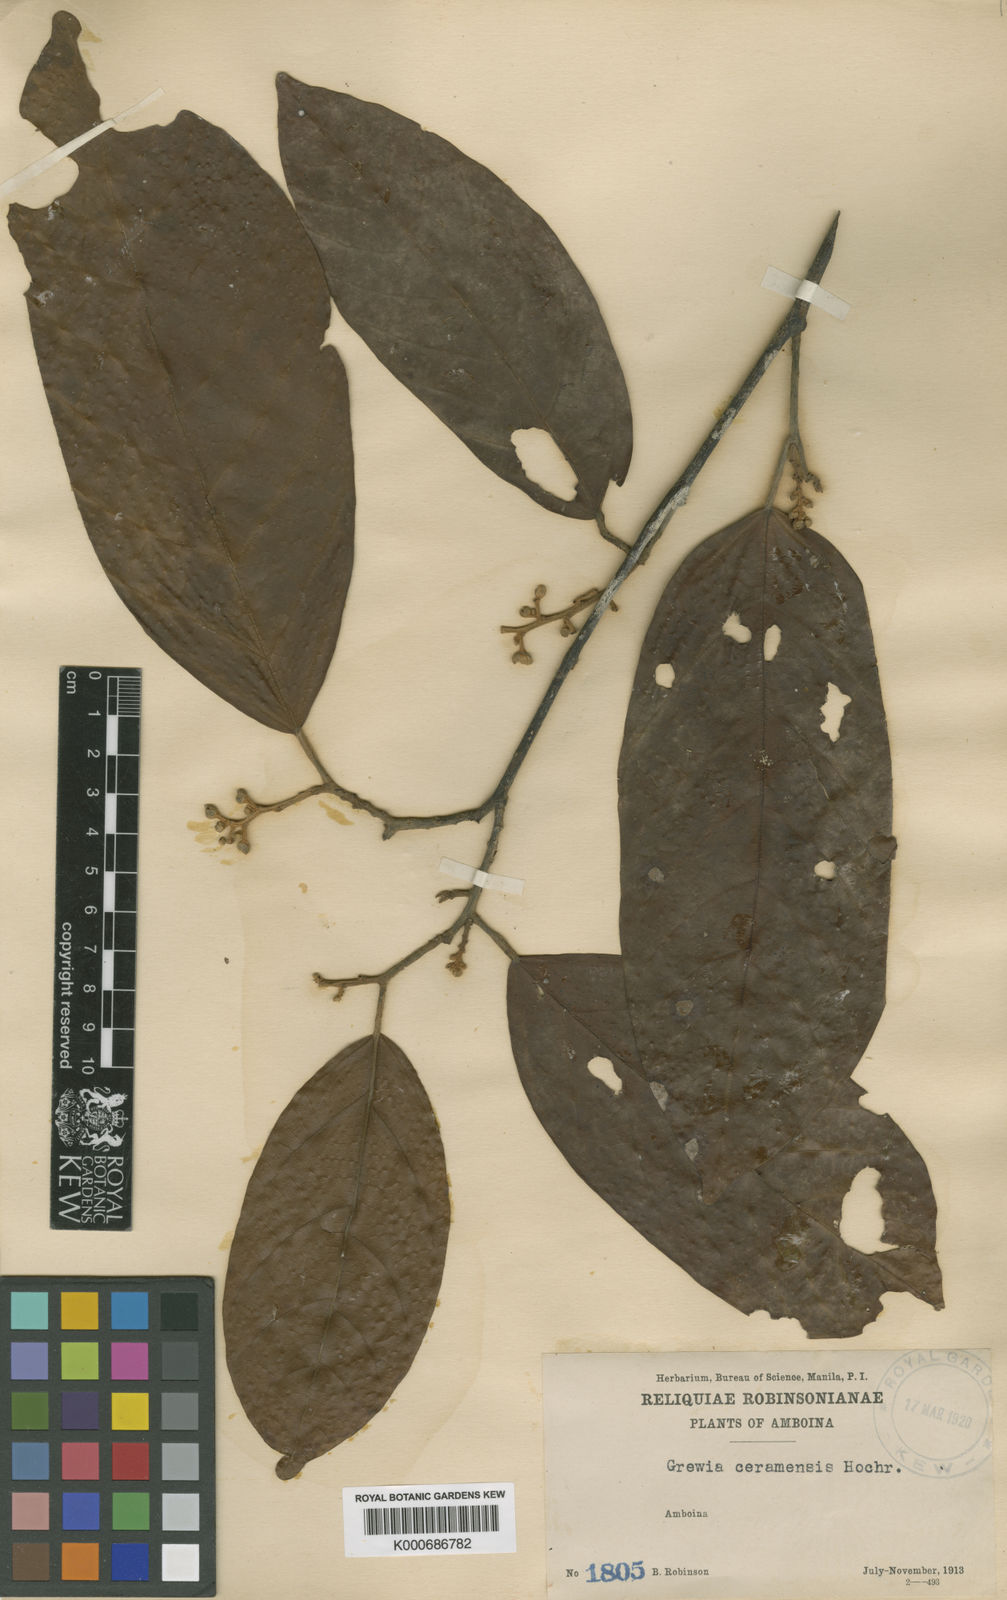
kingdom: Plantae
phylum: Tracheophyta
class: Magnoliopsida
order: Malvales
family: Malvaceae
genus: Microcos
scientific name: Microcos ceramensis
